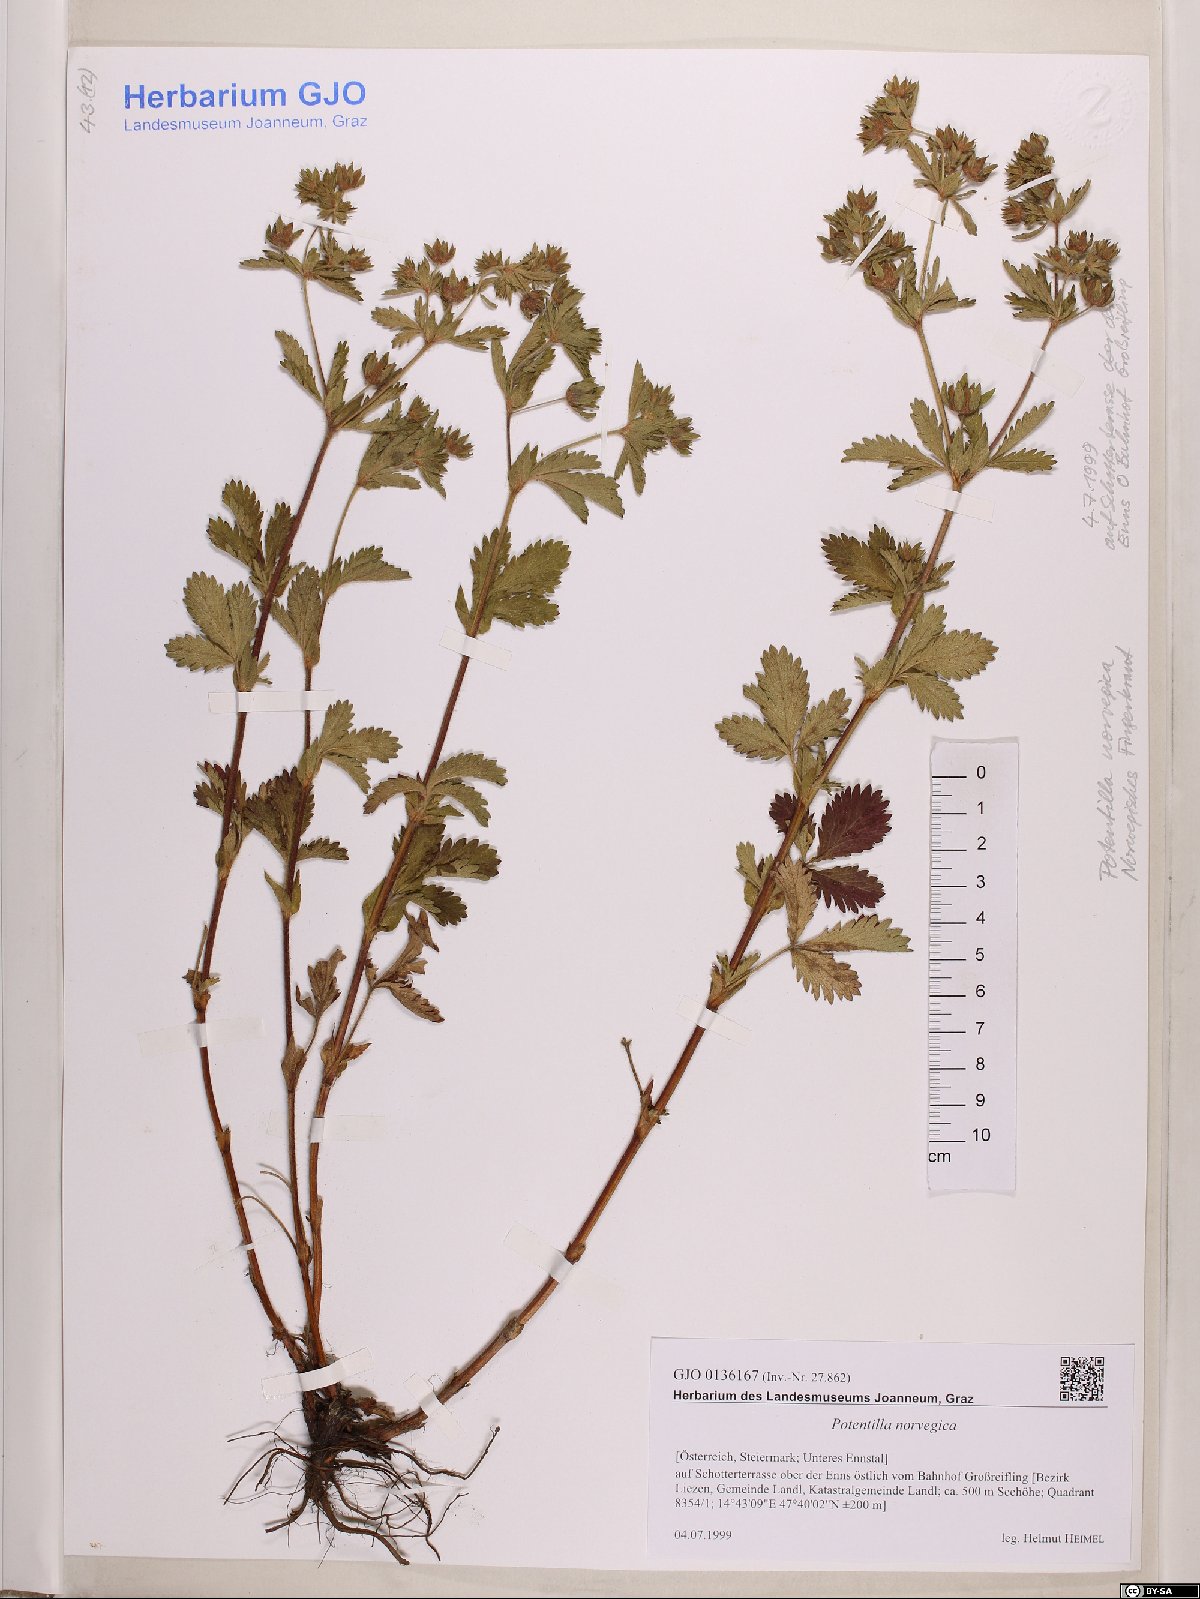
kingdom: Plantae
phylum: Tracheophyta
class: Magnoliopsida
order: Rosales
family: Rosaceae
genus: Potentilla
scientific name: Potentilla norvegica
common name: Ternate-leaved cinquefoil
